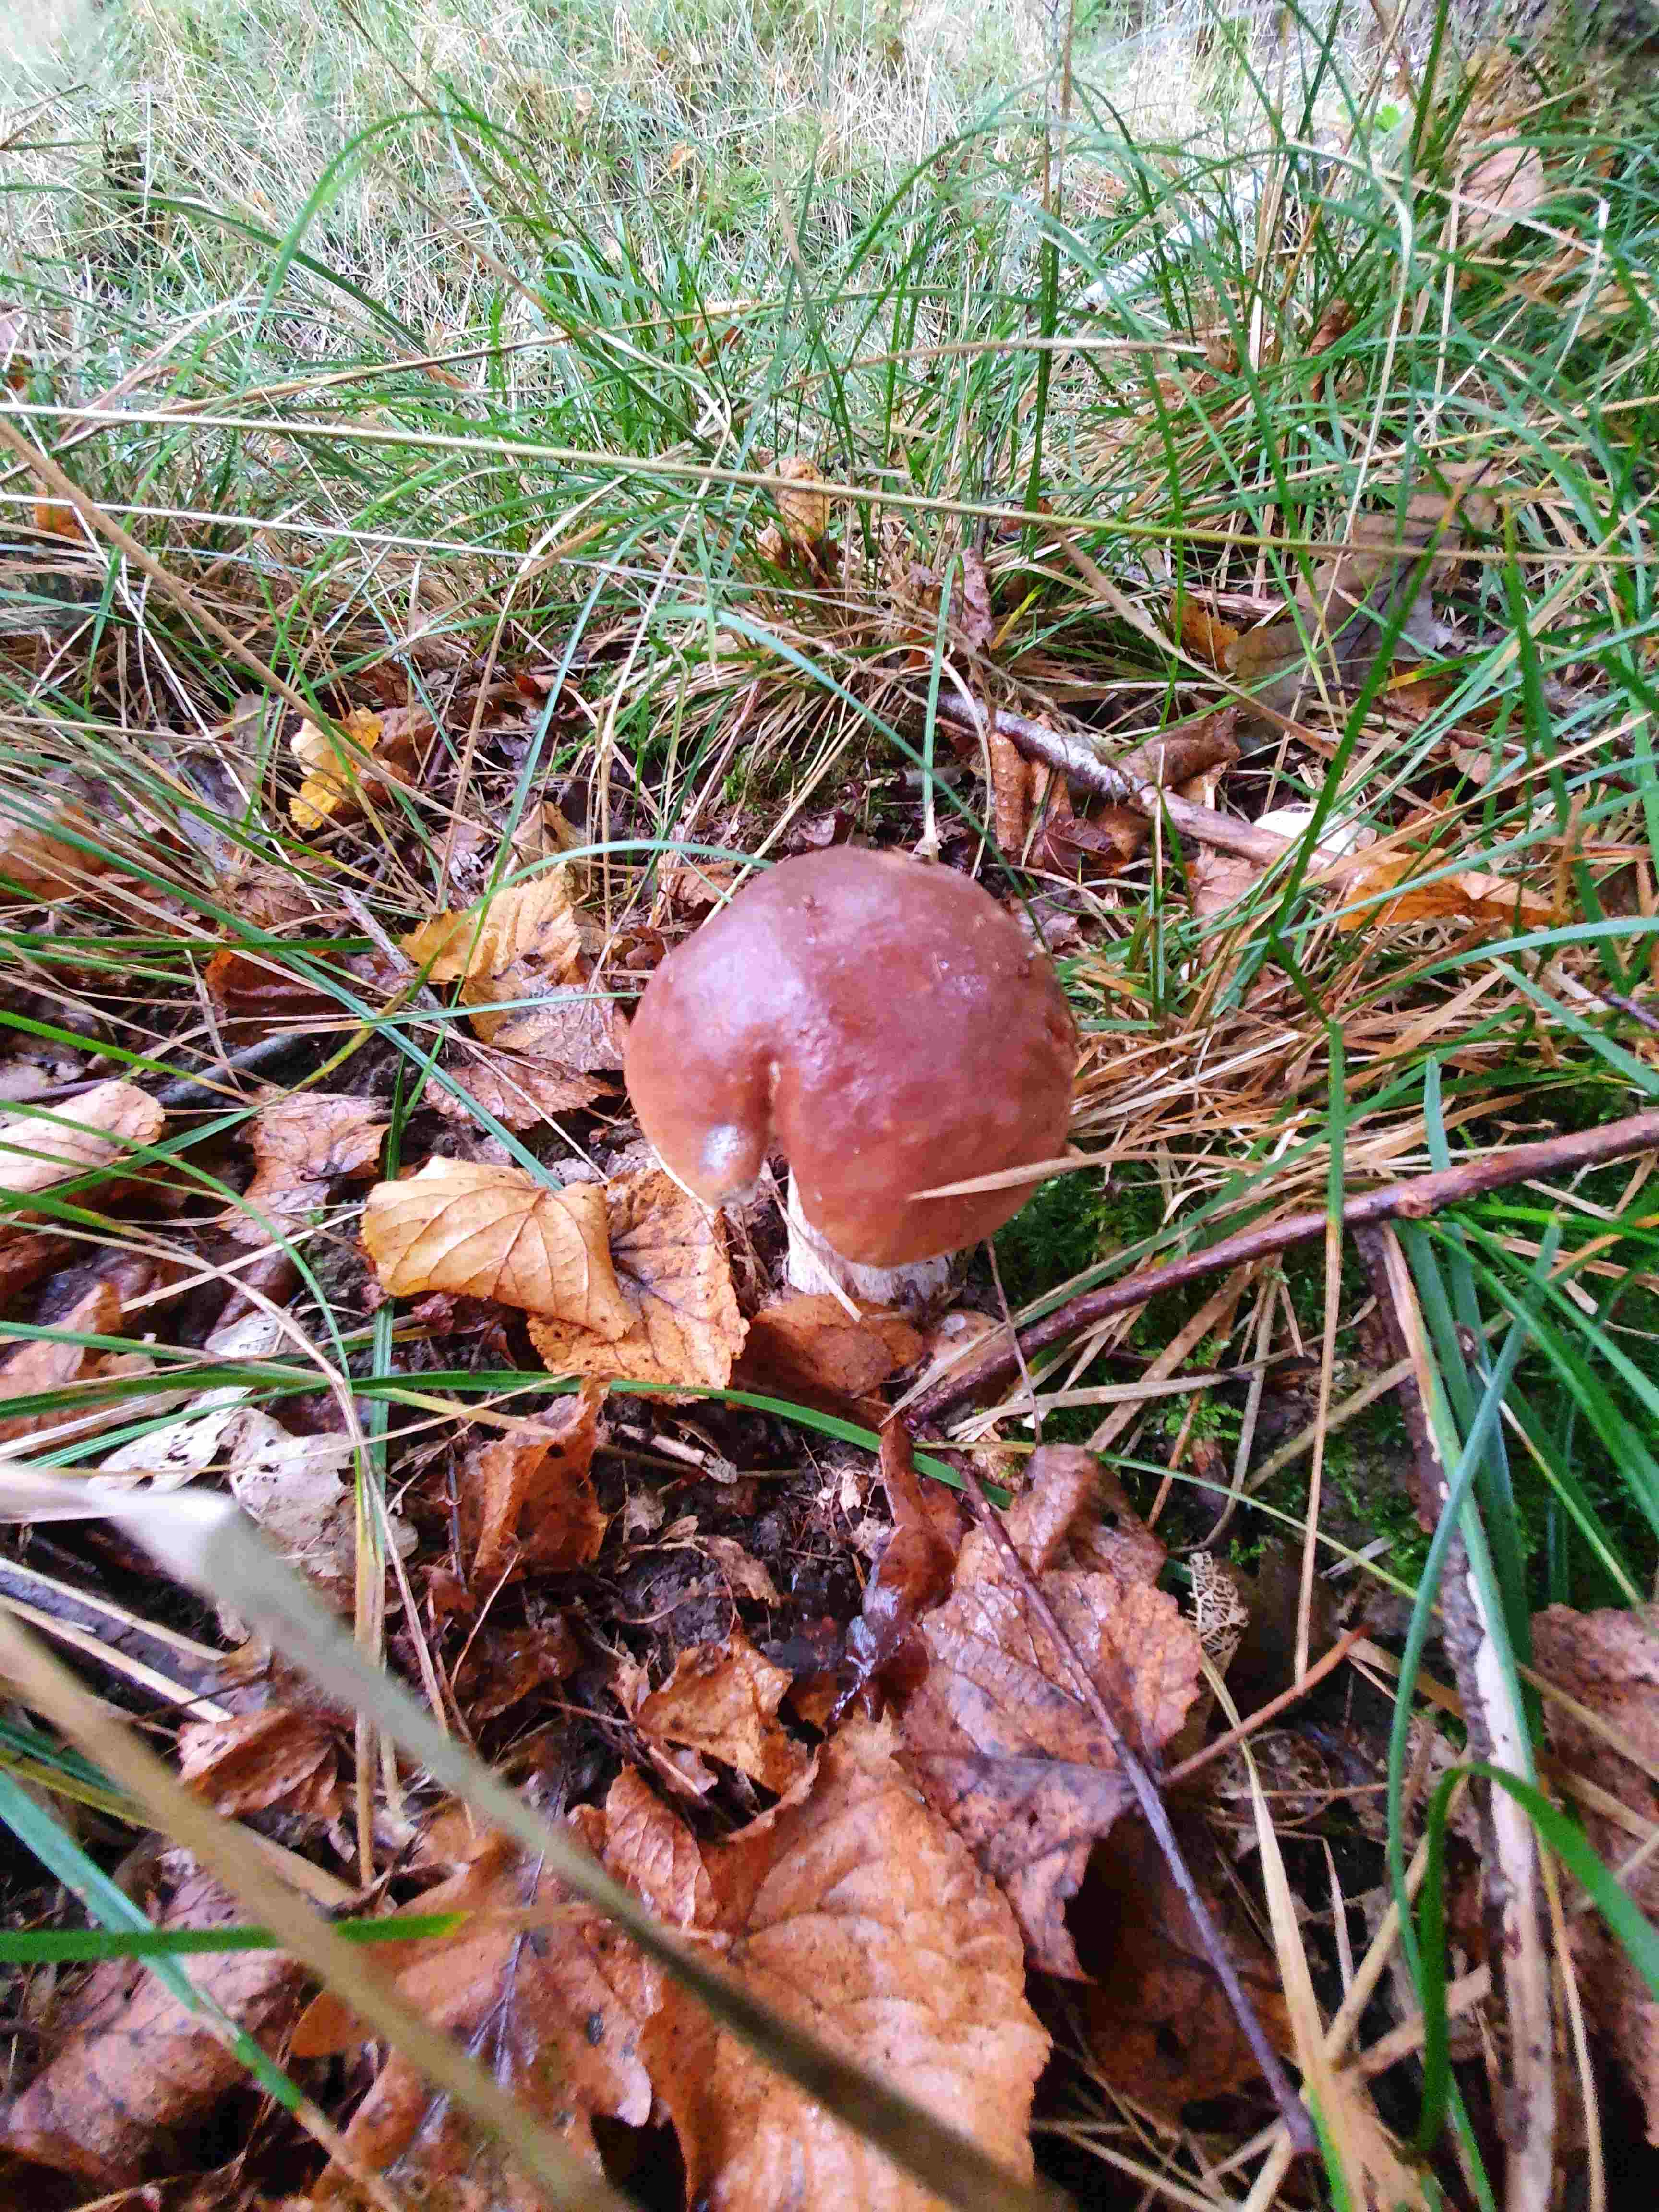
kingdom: Fungi
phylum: Basidiomycota
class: Agaricomycetes
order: Boletales
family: Boletaceae
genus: Boletus
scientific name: Boletus edulis
